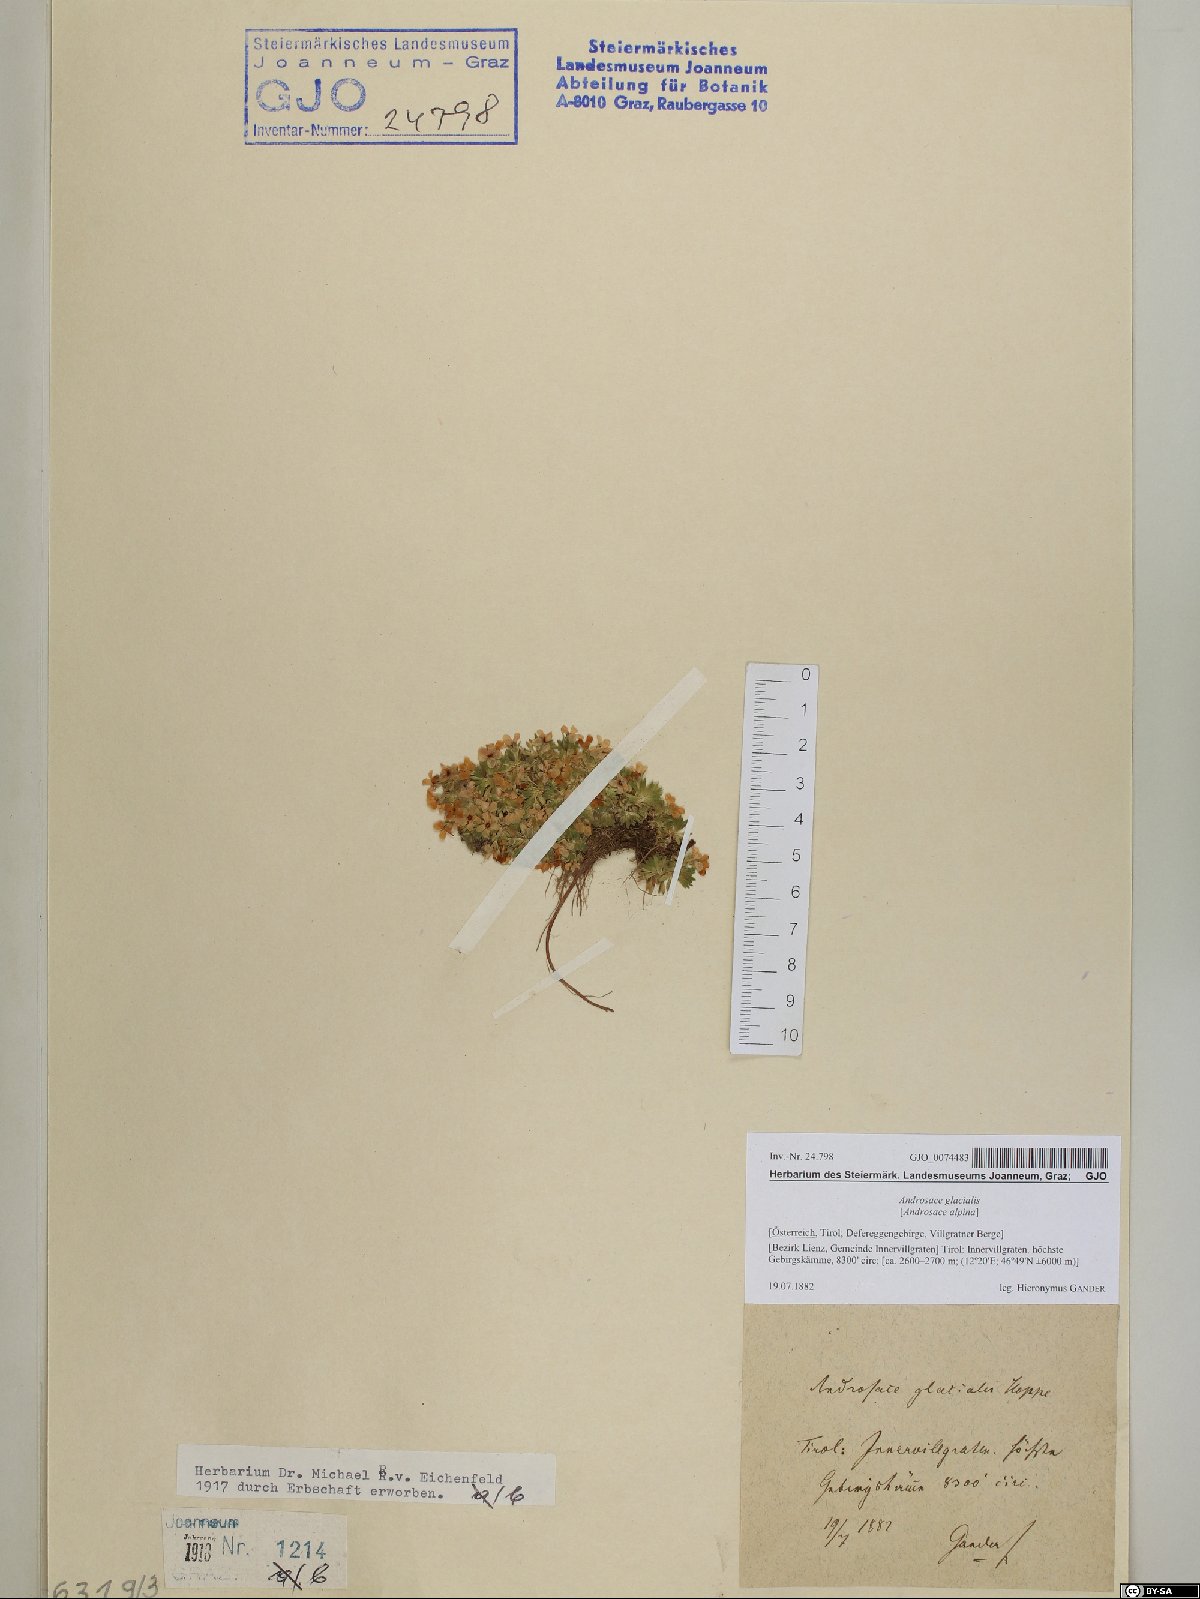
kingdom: Plantae
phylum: Tracheophyta
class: Magnoliopsida
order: Ericales
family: Primulaceae
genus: Androsace
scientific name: Androsace alpina
